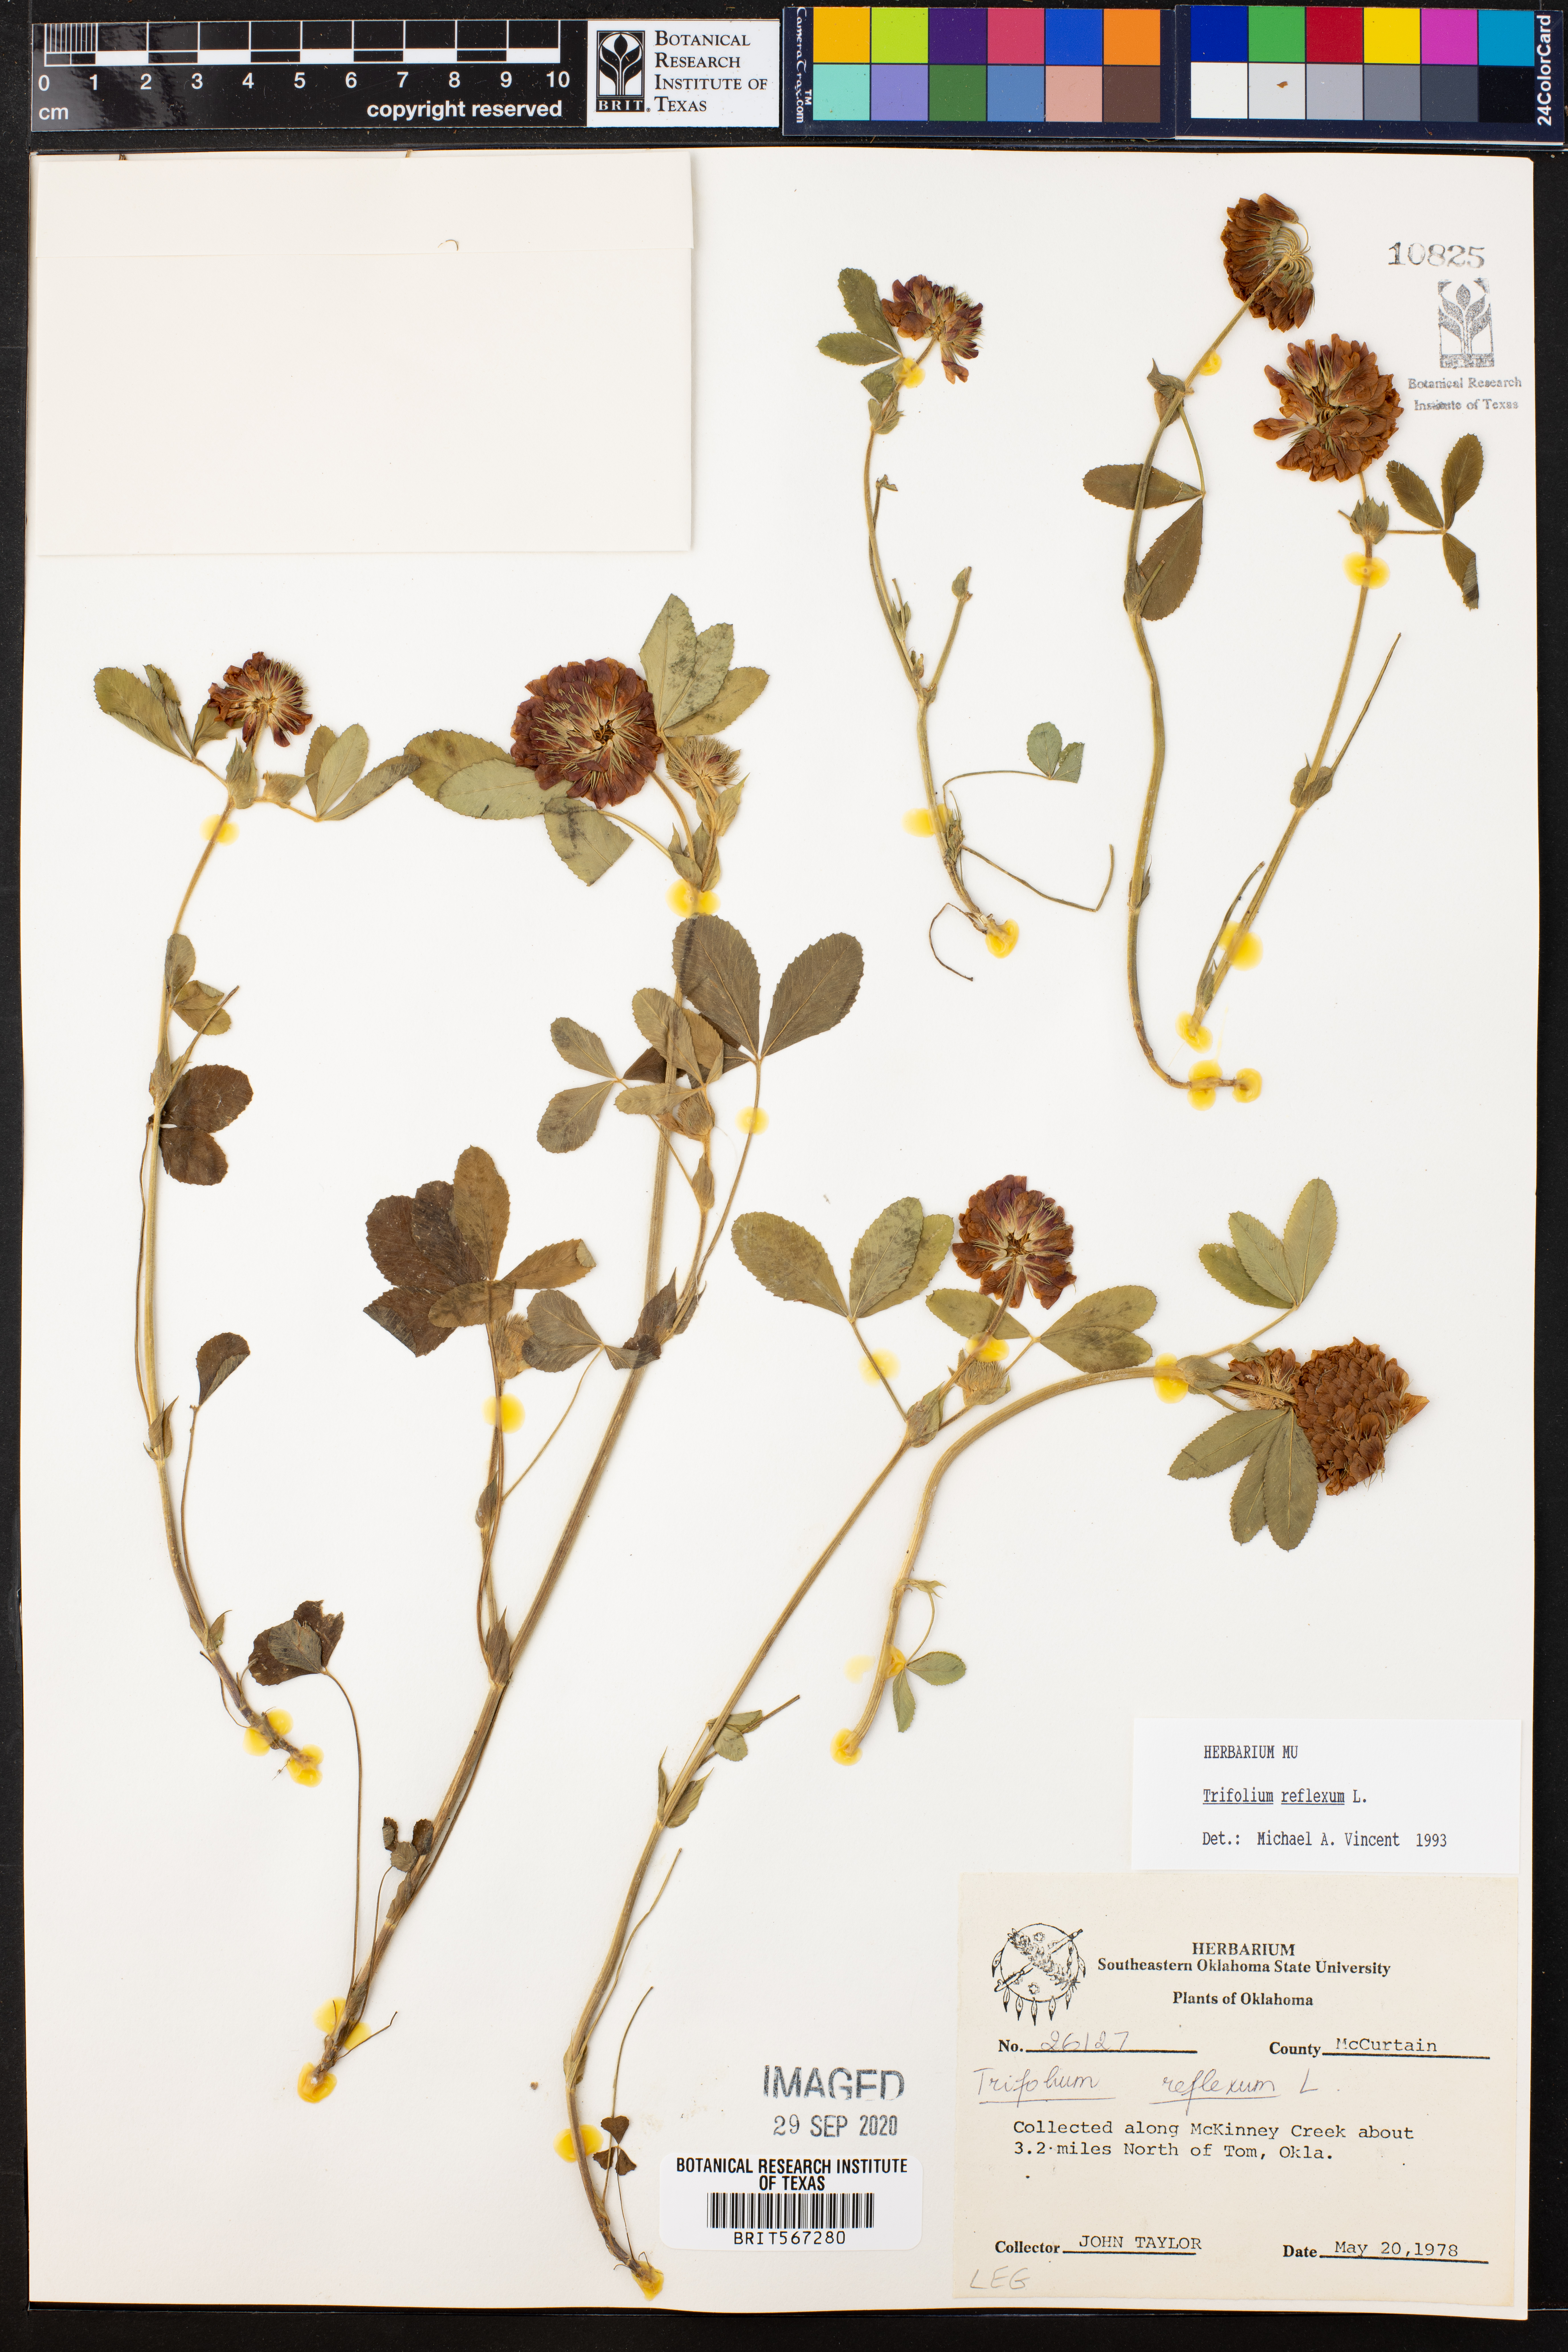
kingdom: Plantae
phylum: Tracheophyta
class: Magnoliopsida
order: Fabales
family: Fabaceae
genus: Trifolium
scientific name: Trifolium reflexum
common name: Buffalo clover
